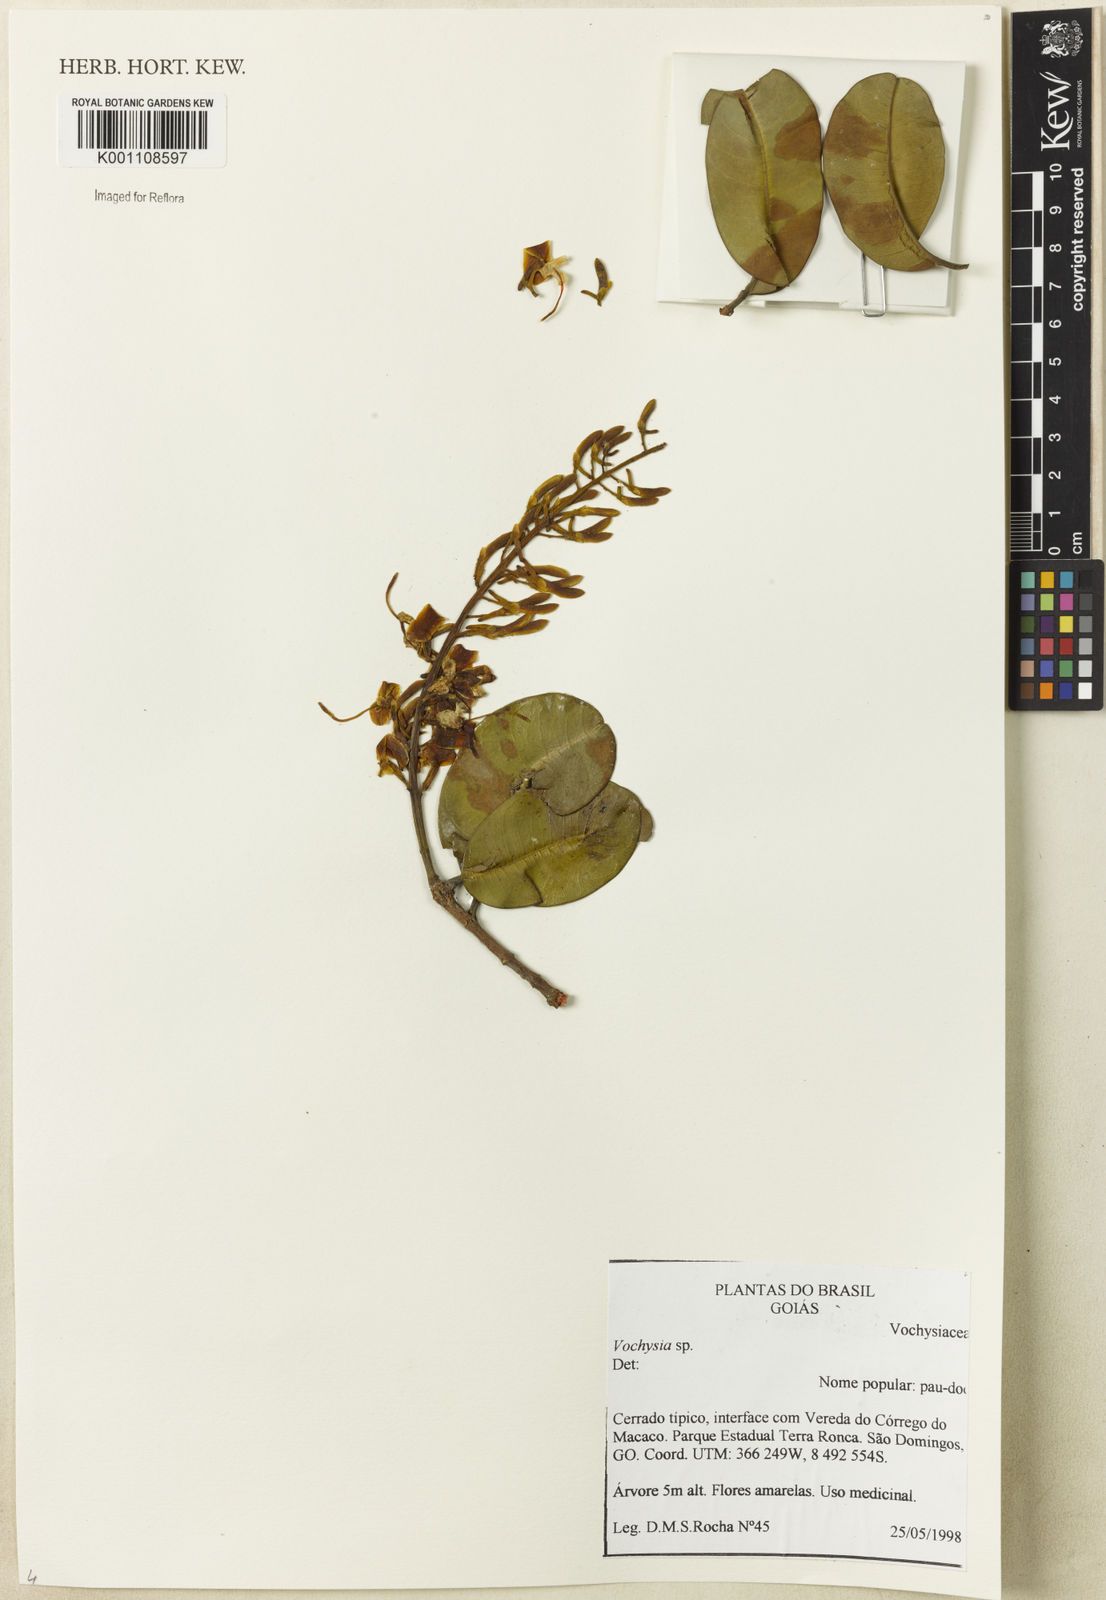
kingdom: Plantae
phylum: Tracheophyta
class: Magnoliopsida
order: Myrtales
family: Vochysiaceae
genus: Vochysia
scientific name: Vochysia
